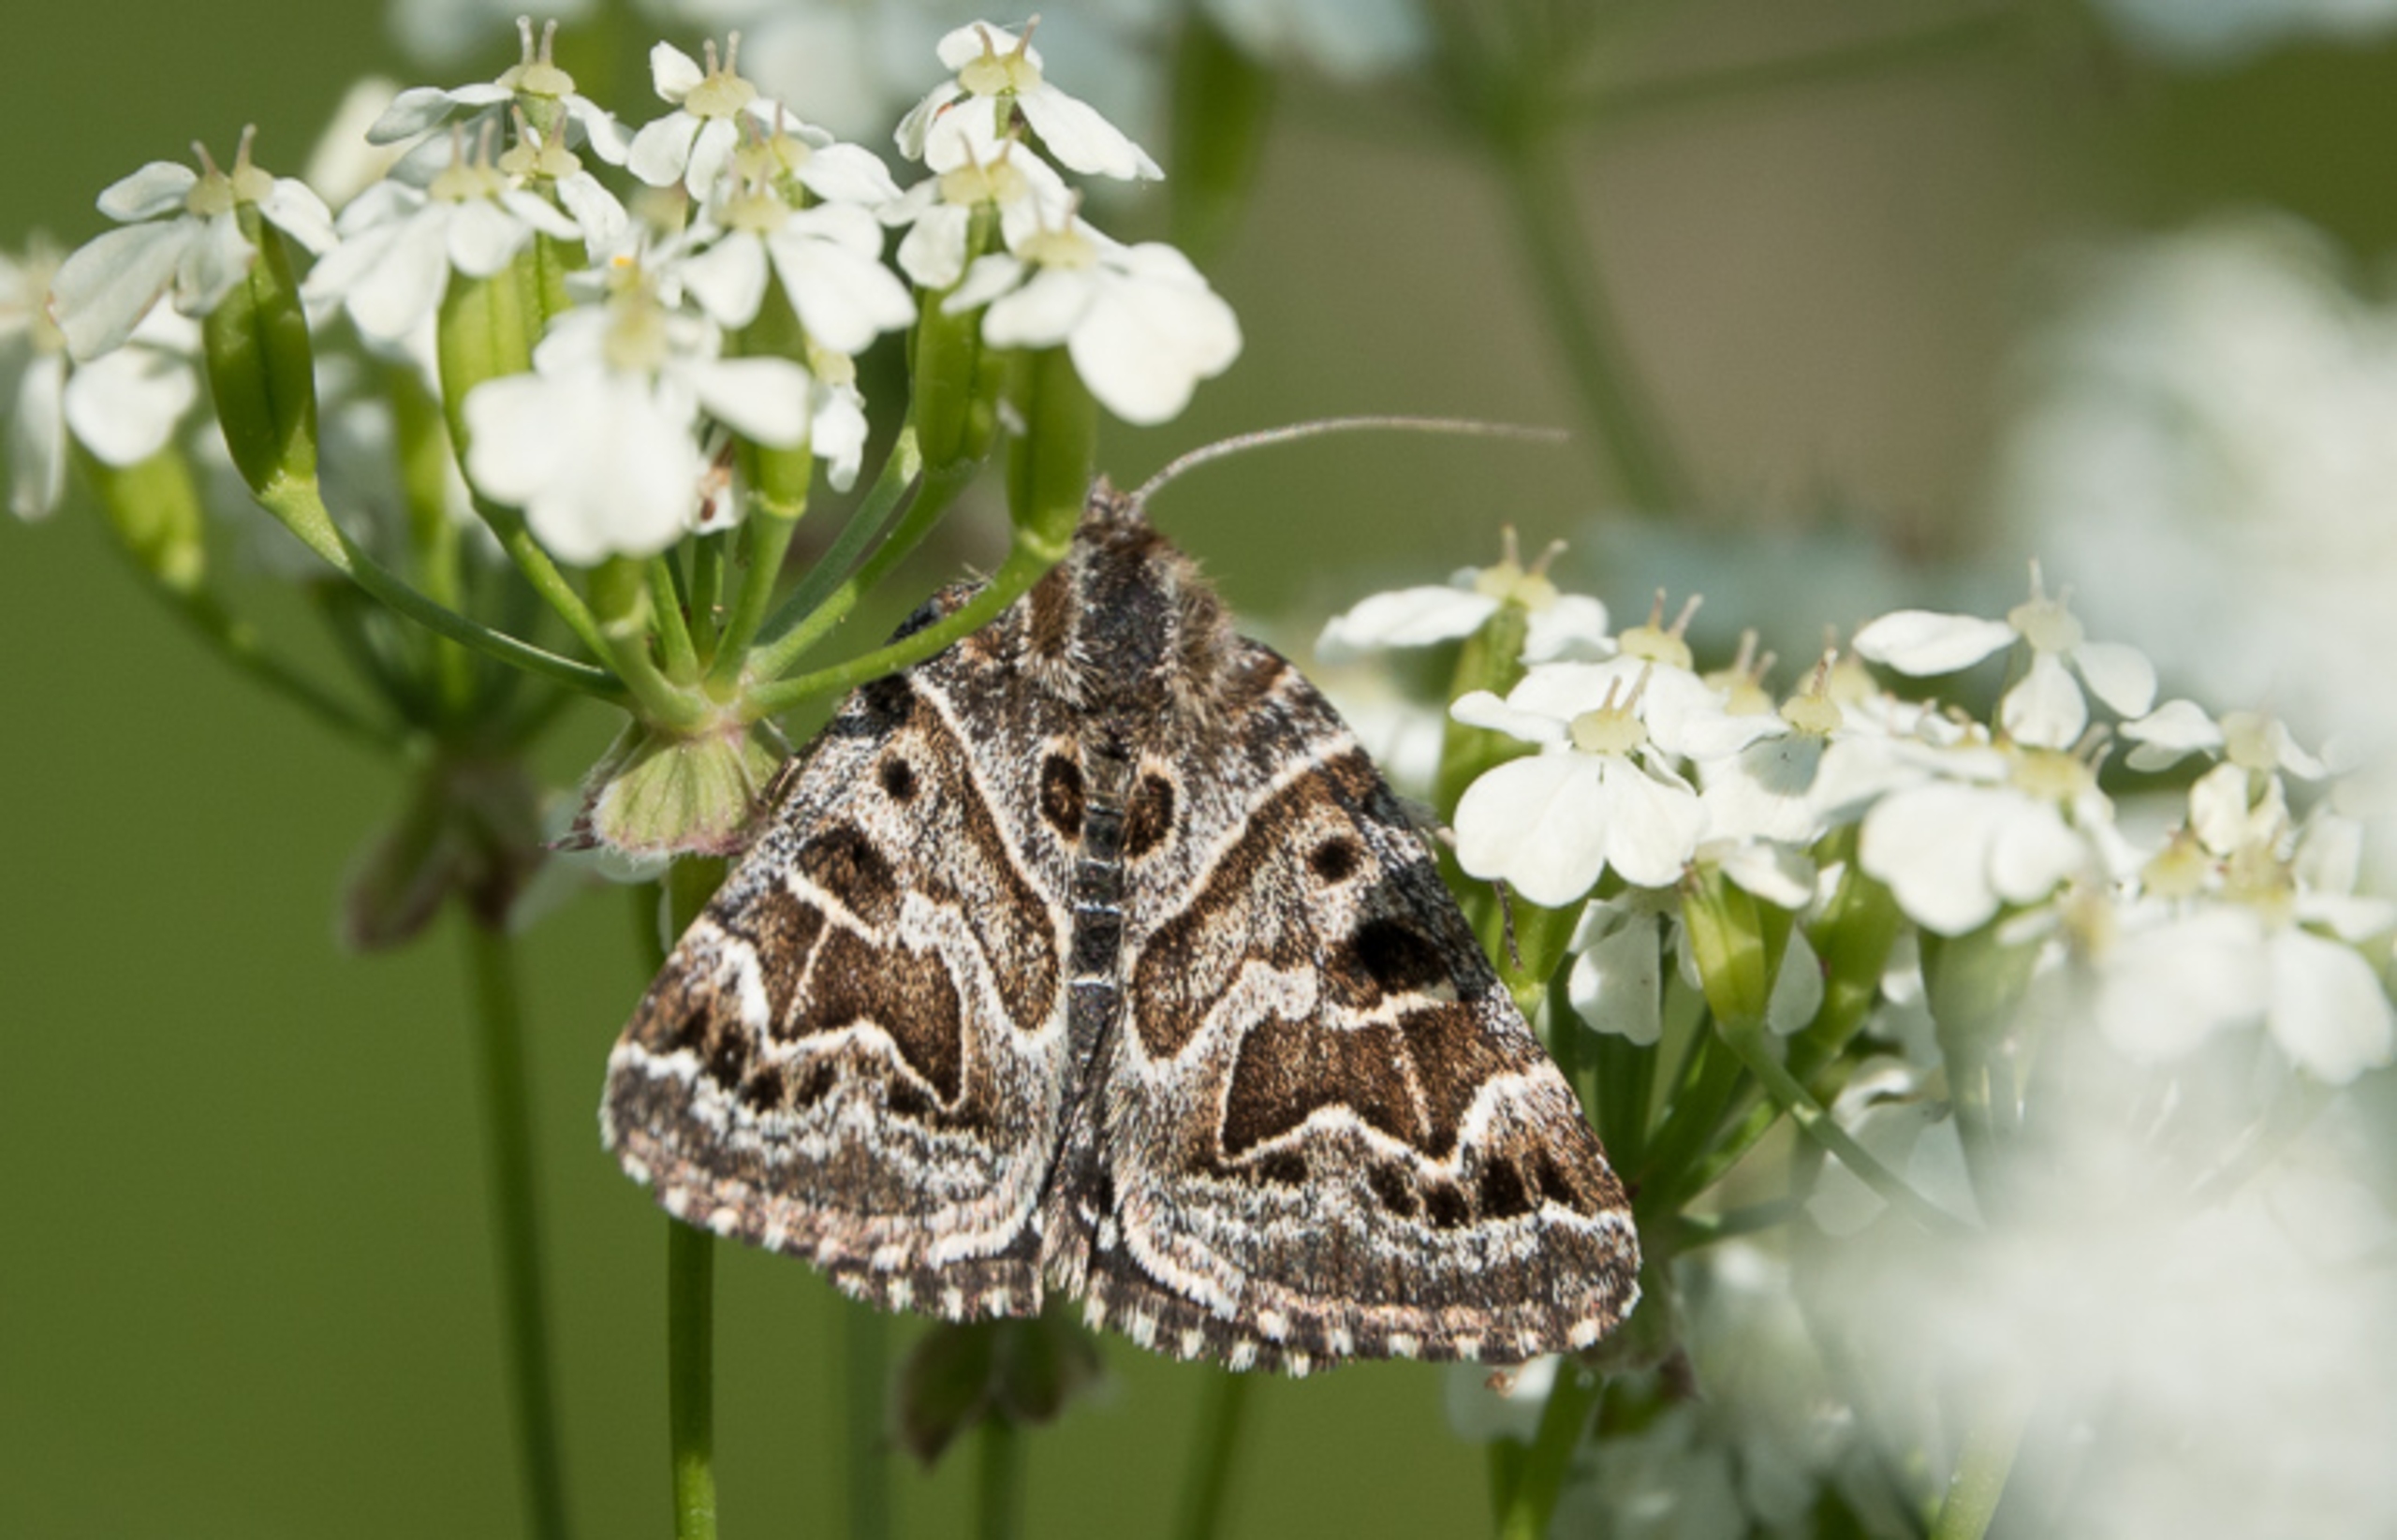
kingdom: Animalia
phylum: Arthropoda
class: Insecta
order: Lepidoptera
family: Erebidae
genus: Callistege
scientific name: Callistege mi
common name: Marmoreret kløverugle
